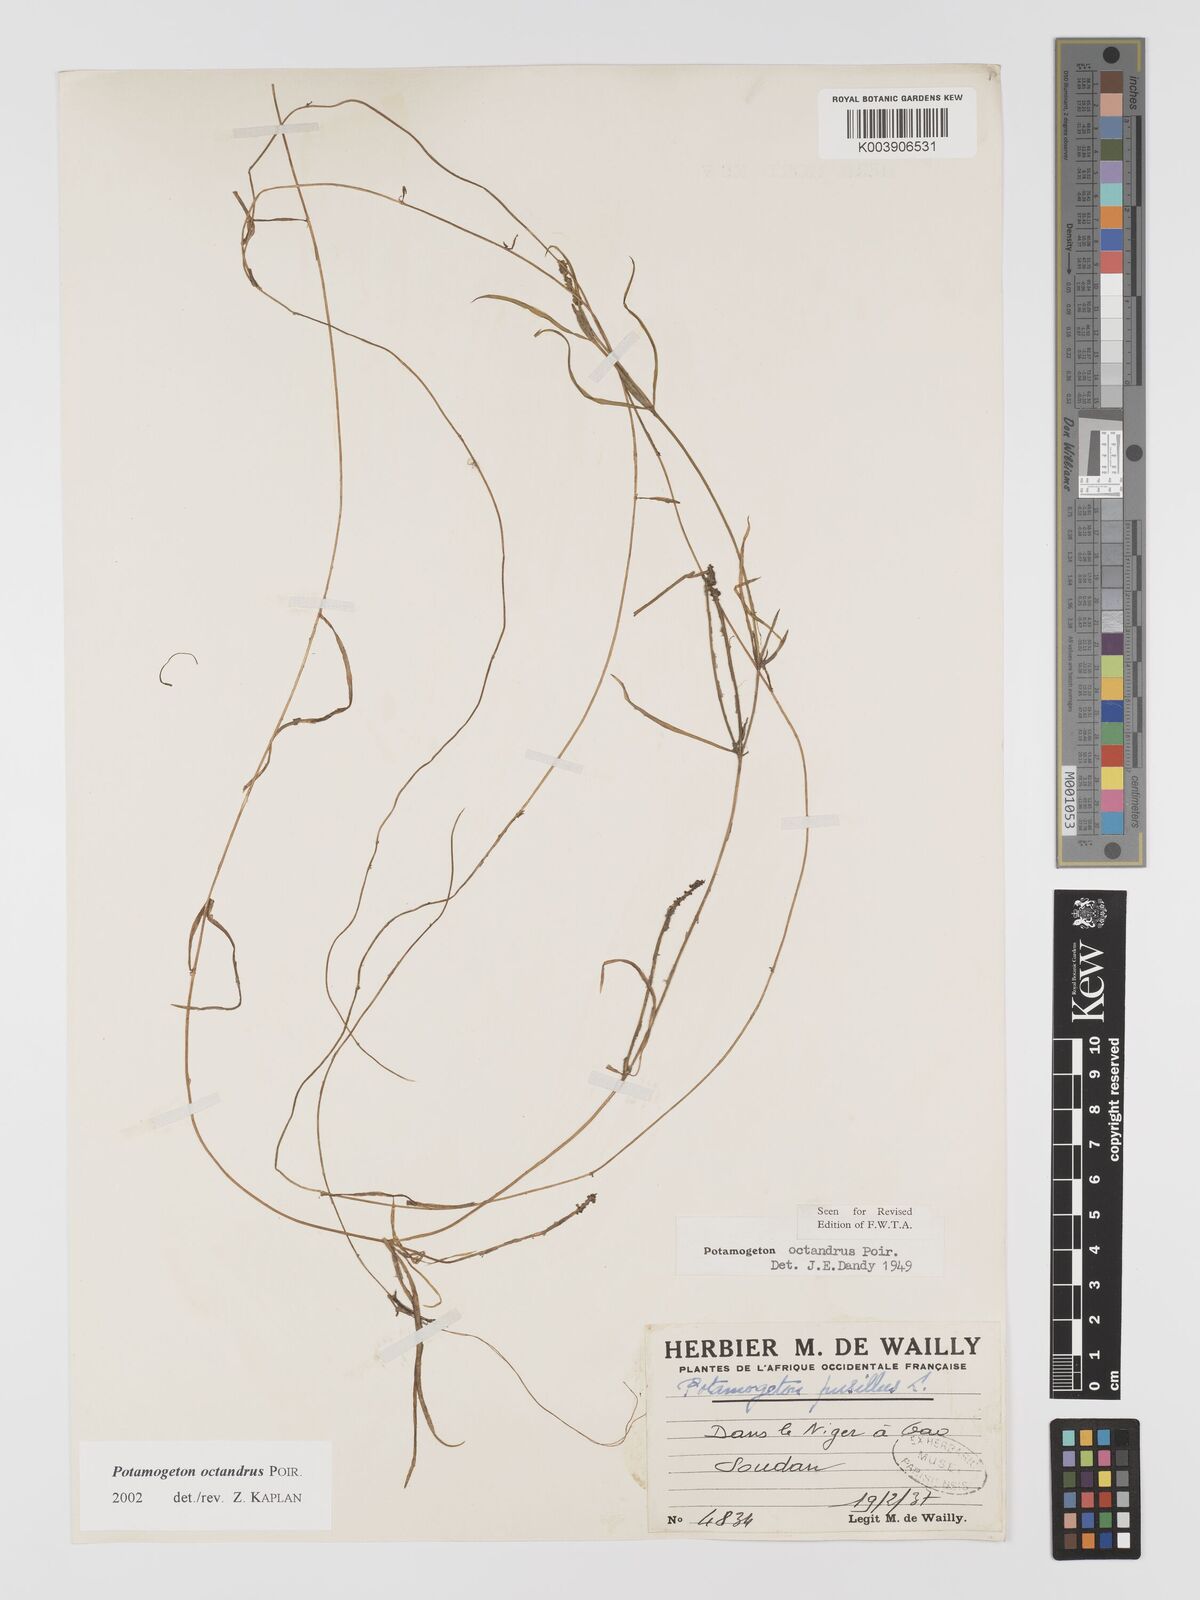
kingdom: Plantae
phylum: Tracheophyta
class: Liliopsida
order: Alismatales
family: Potamogetonaceae
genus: Potamogeton
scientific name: Potamogeton octandrus
